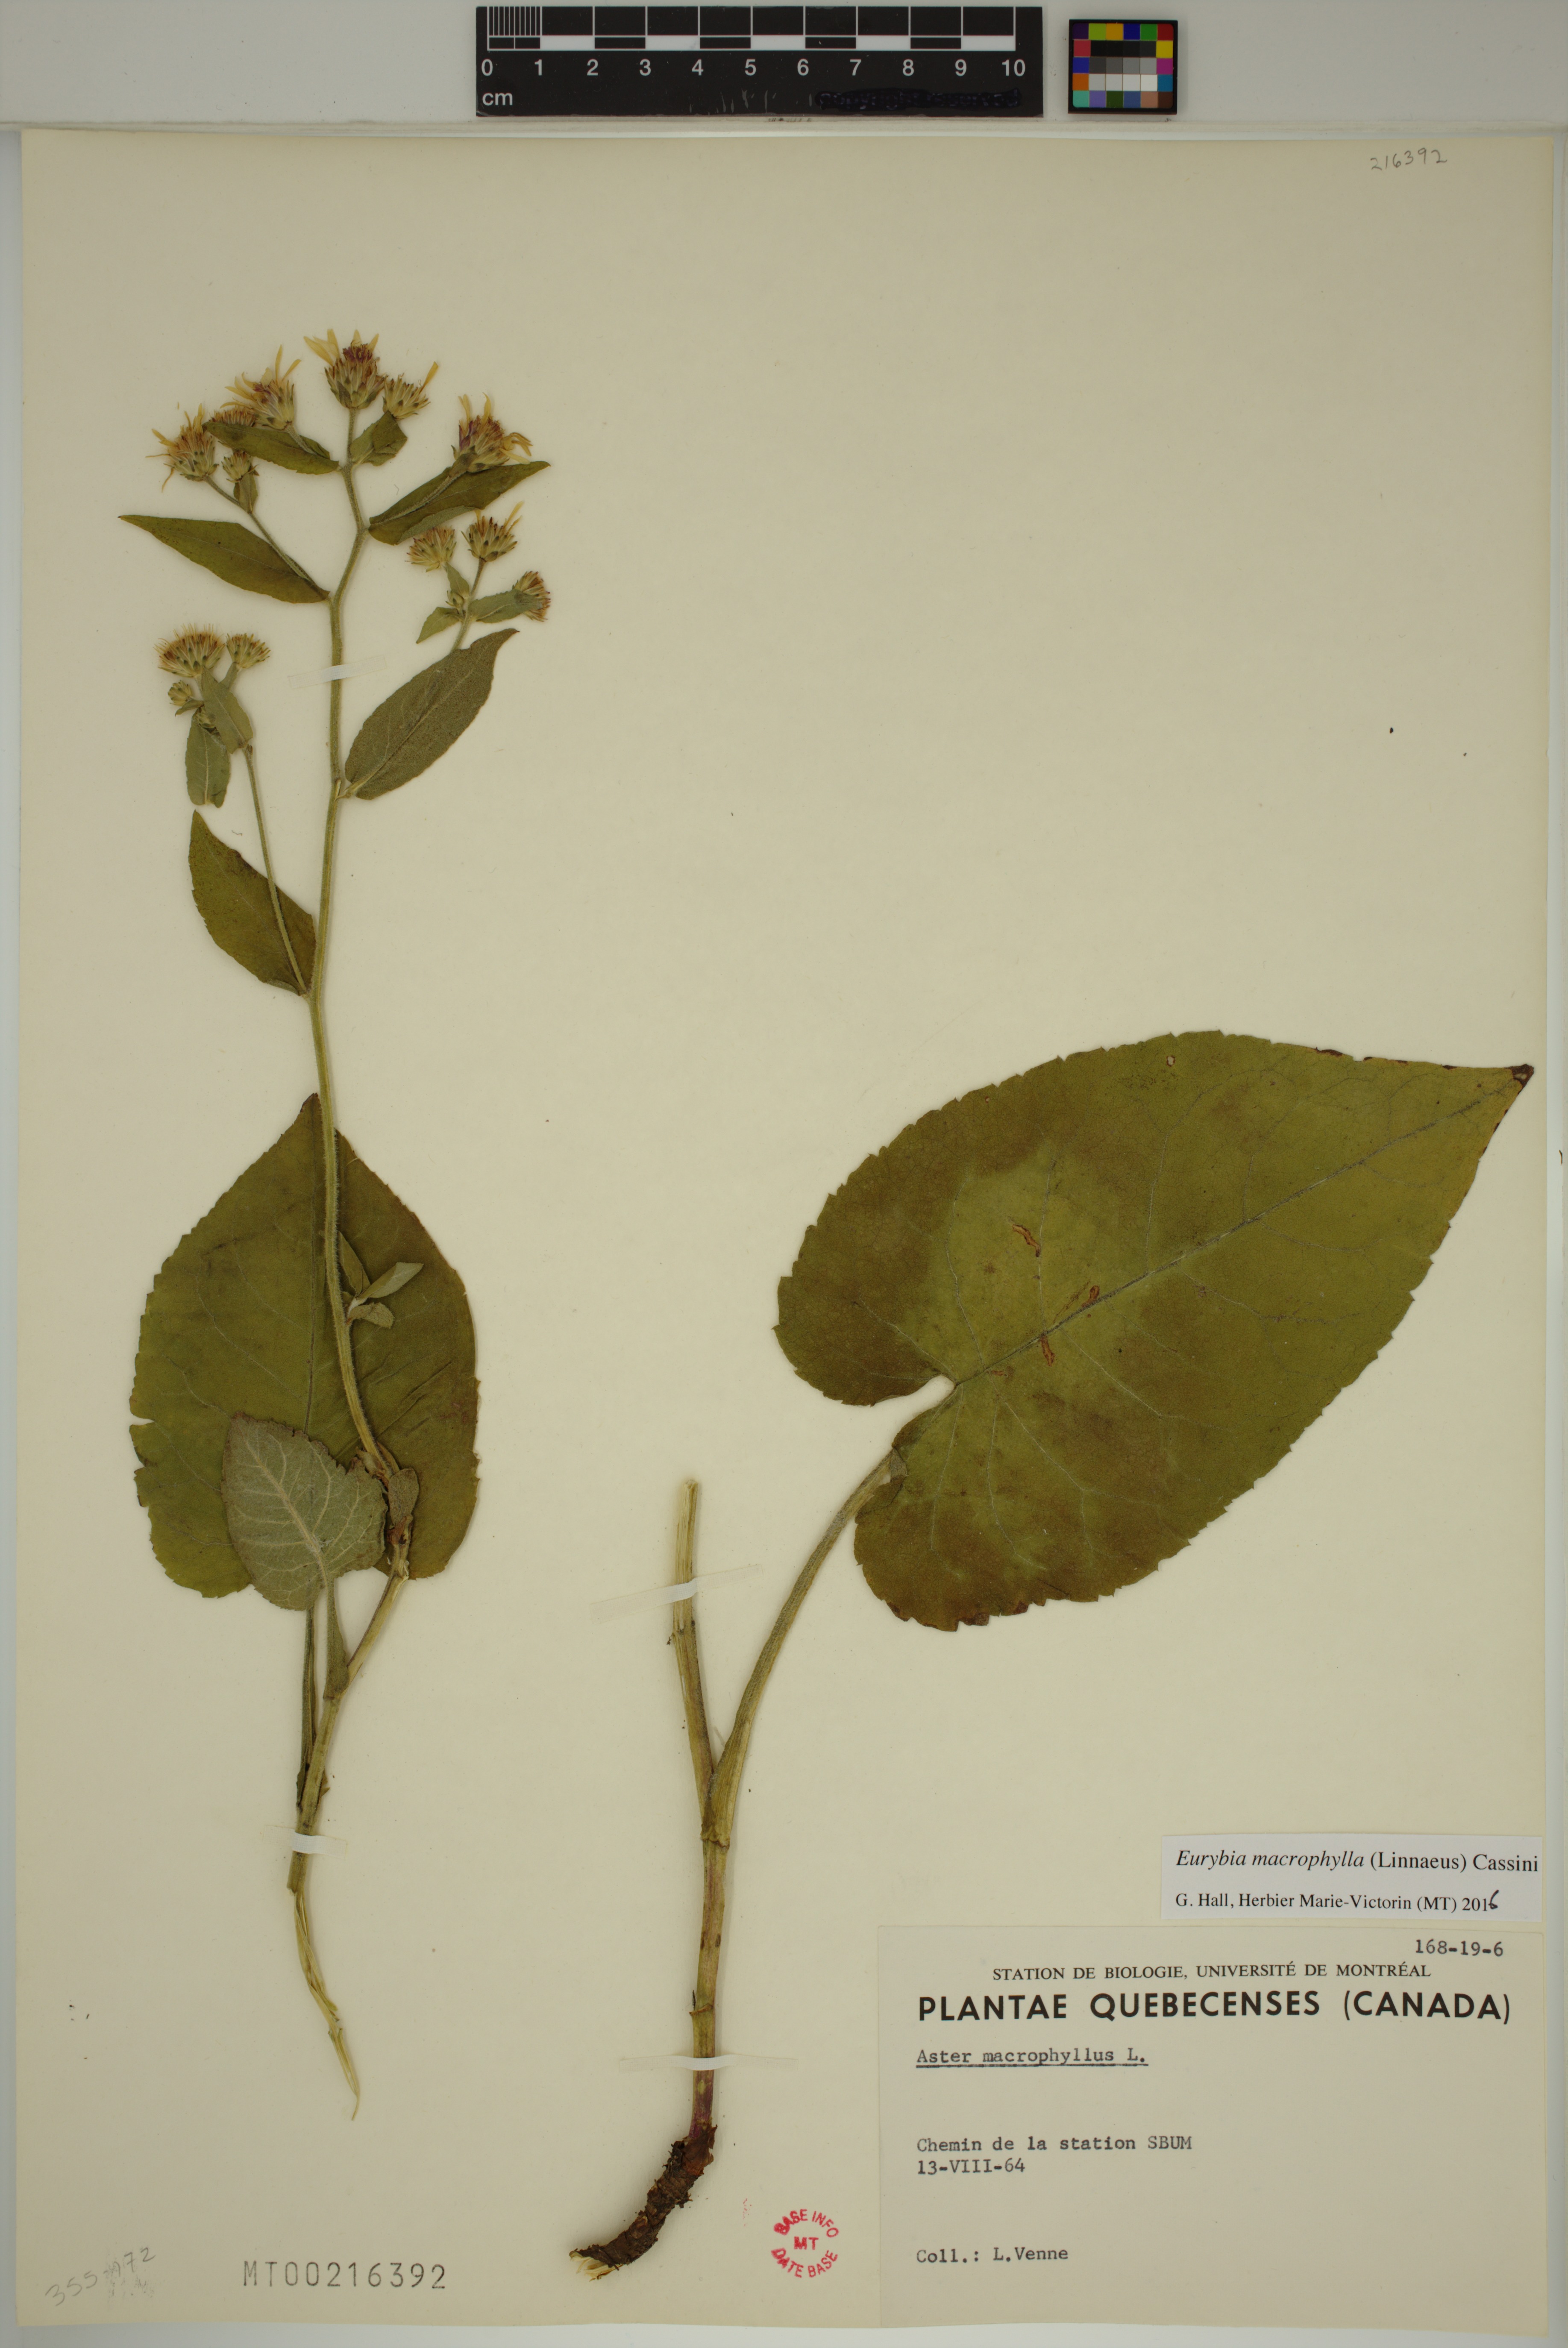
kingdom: Plantae
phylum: Tracheophyta
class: Magnoliopsida
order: Asterales
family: Asteraceae
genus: Eurybia
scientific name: Eurybia macrophylla
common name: Big-leaved aster
